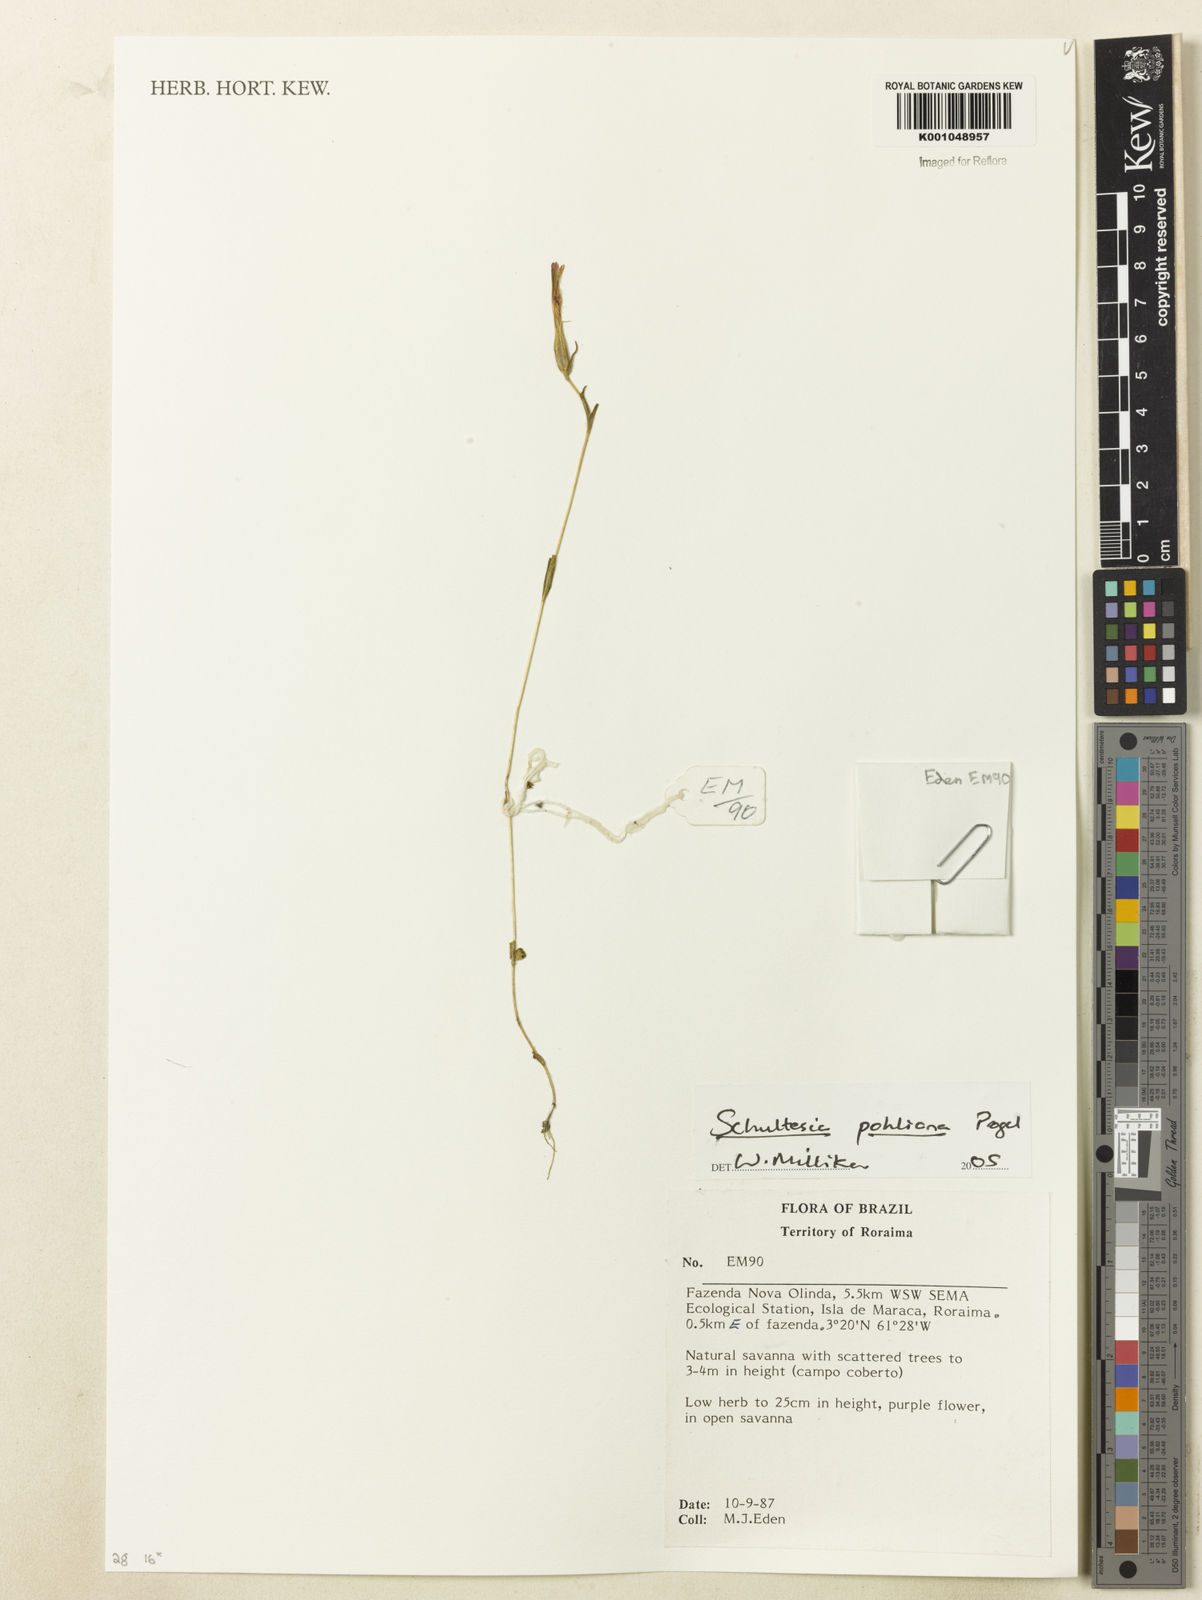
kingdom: Plantae
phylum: Tracheophyta
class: Magnoliopsida
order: Gentianales
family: Gentianaceae
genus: Schultesia
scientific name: Schultesia pohliana
